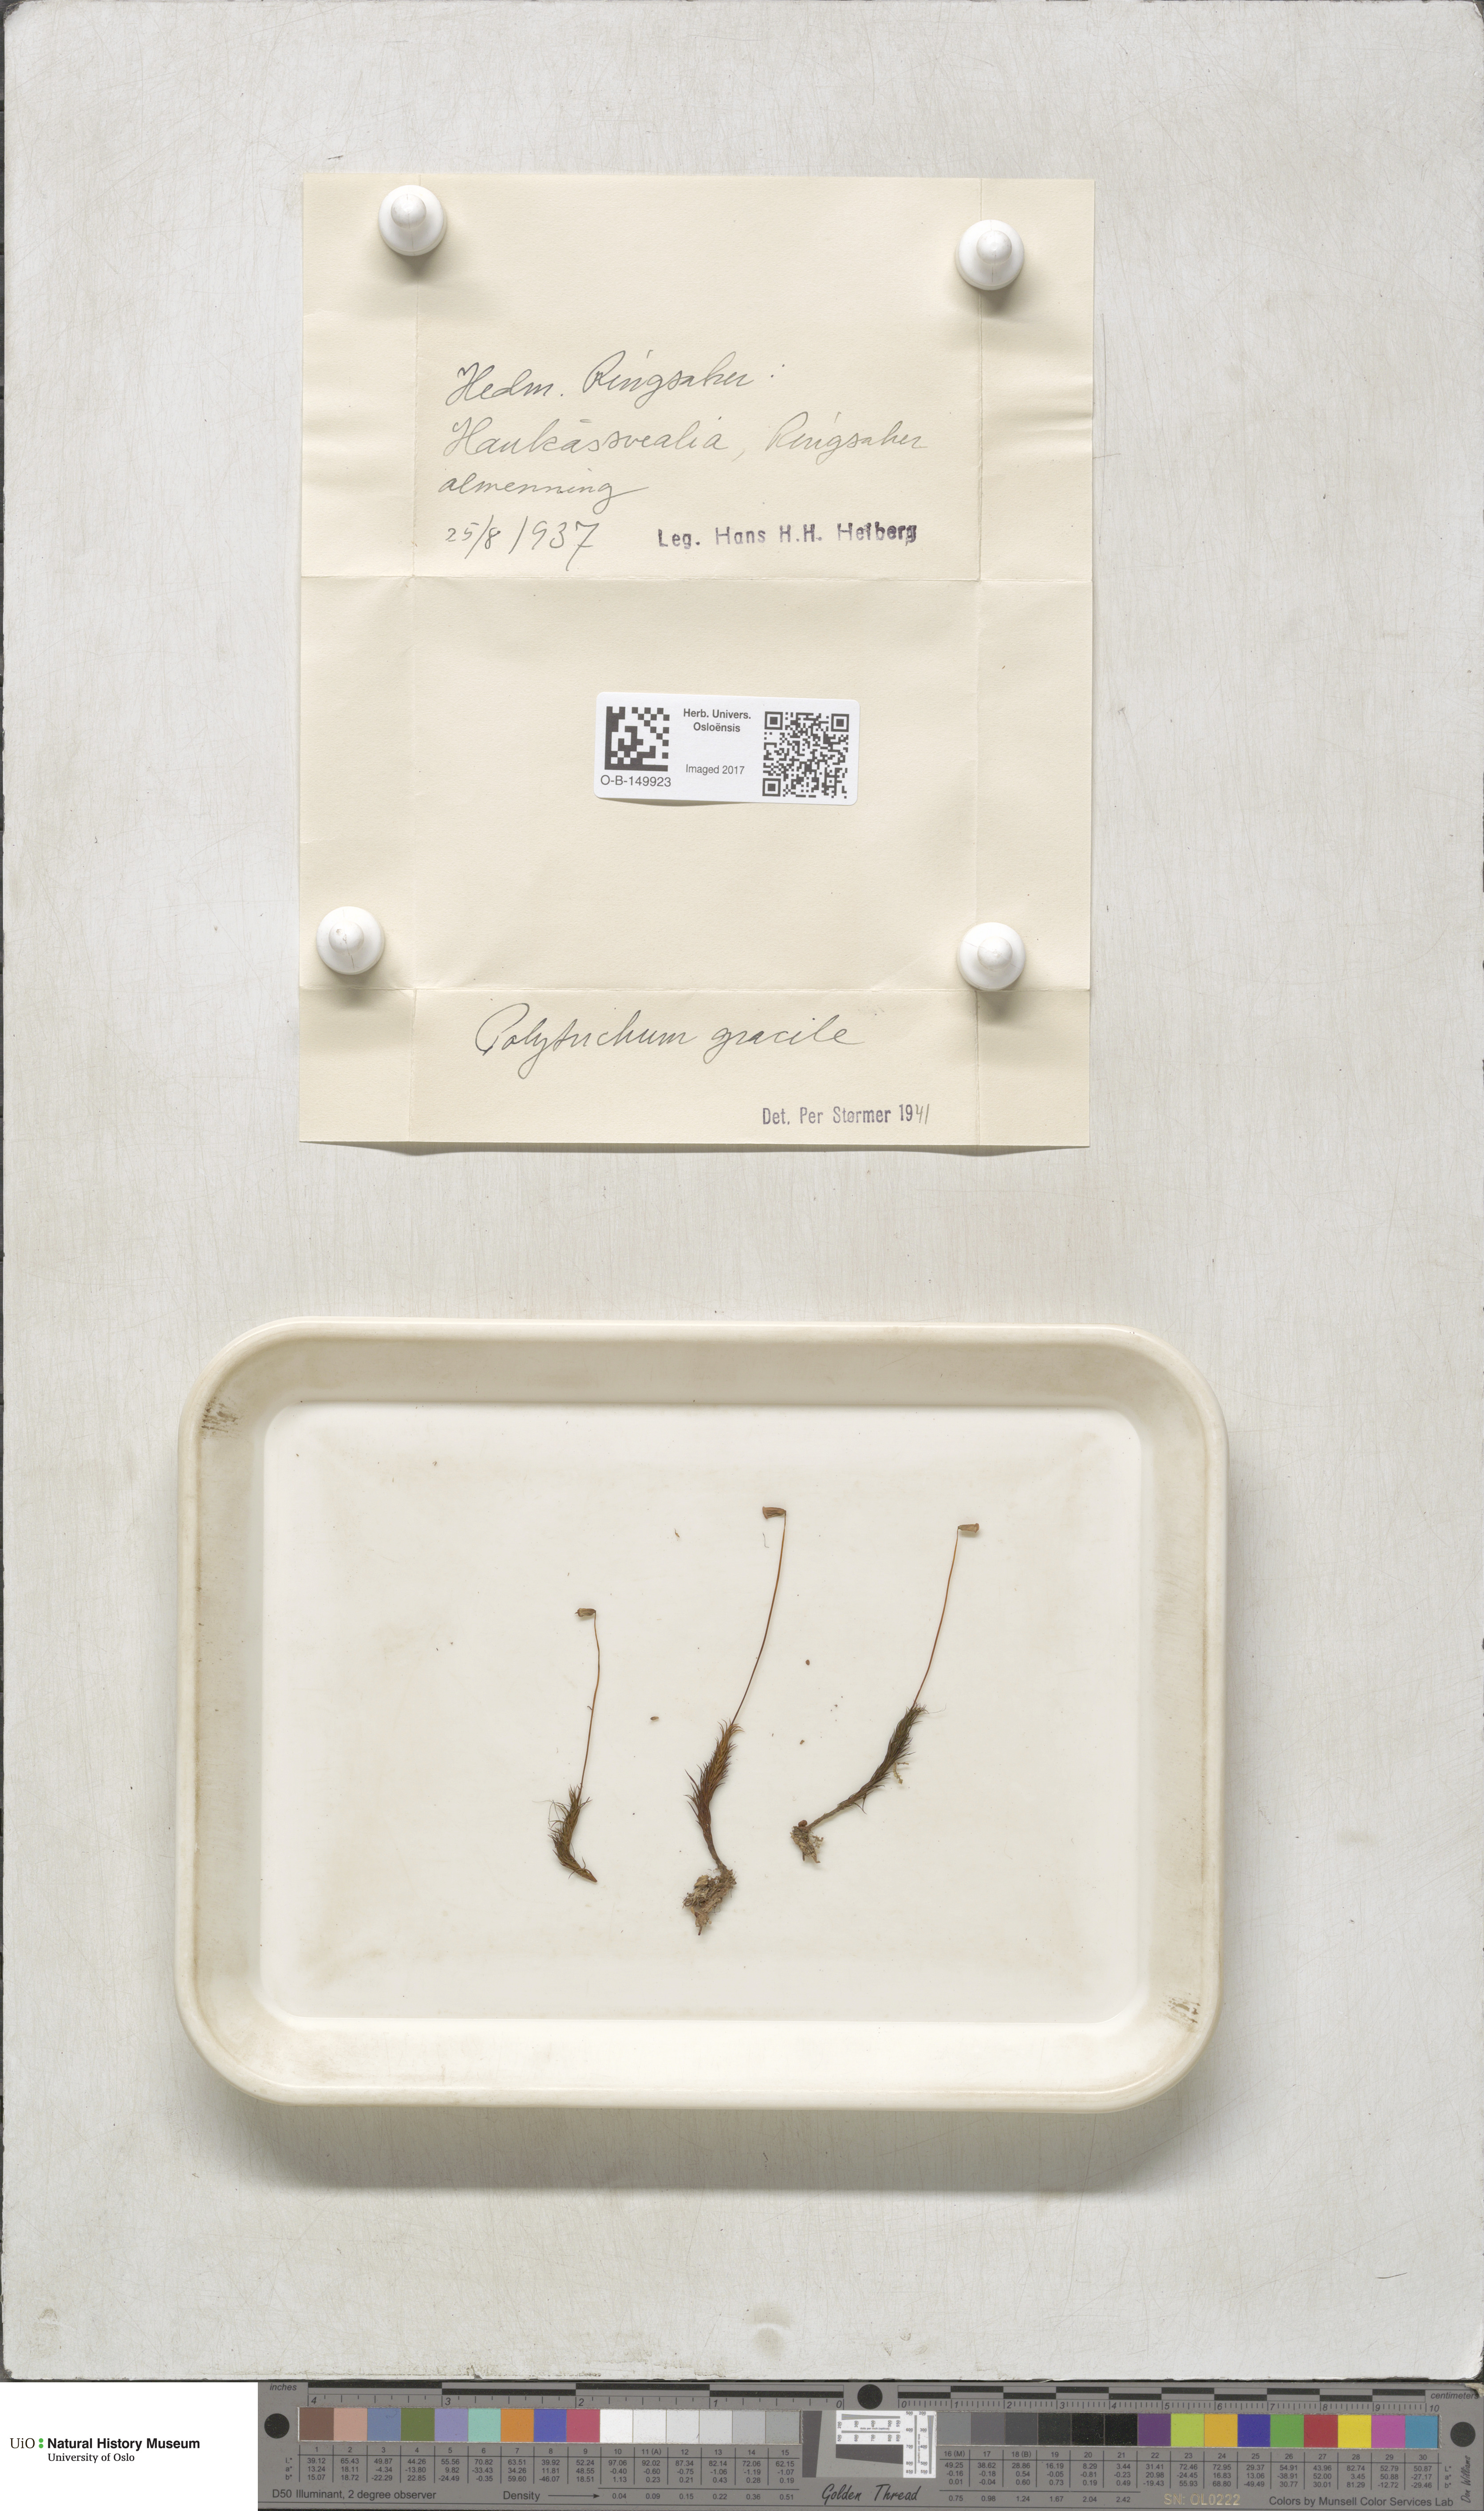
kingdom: Plantae
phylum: Bryophyta
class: Polytrichopsida
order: Polytrichales
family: Polytrichaceae
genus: Polytrichum
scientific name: Polytrichum longisetum
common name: Long-stalked haircap moss
